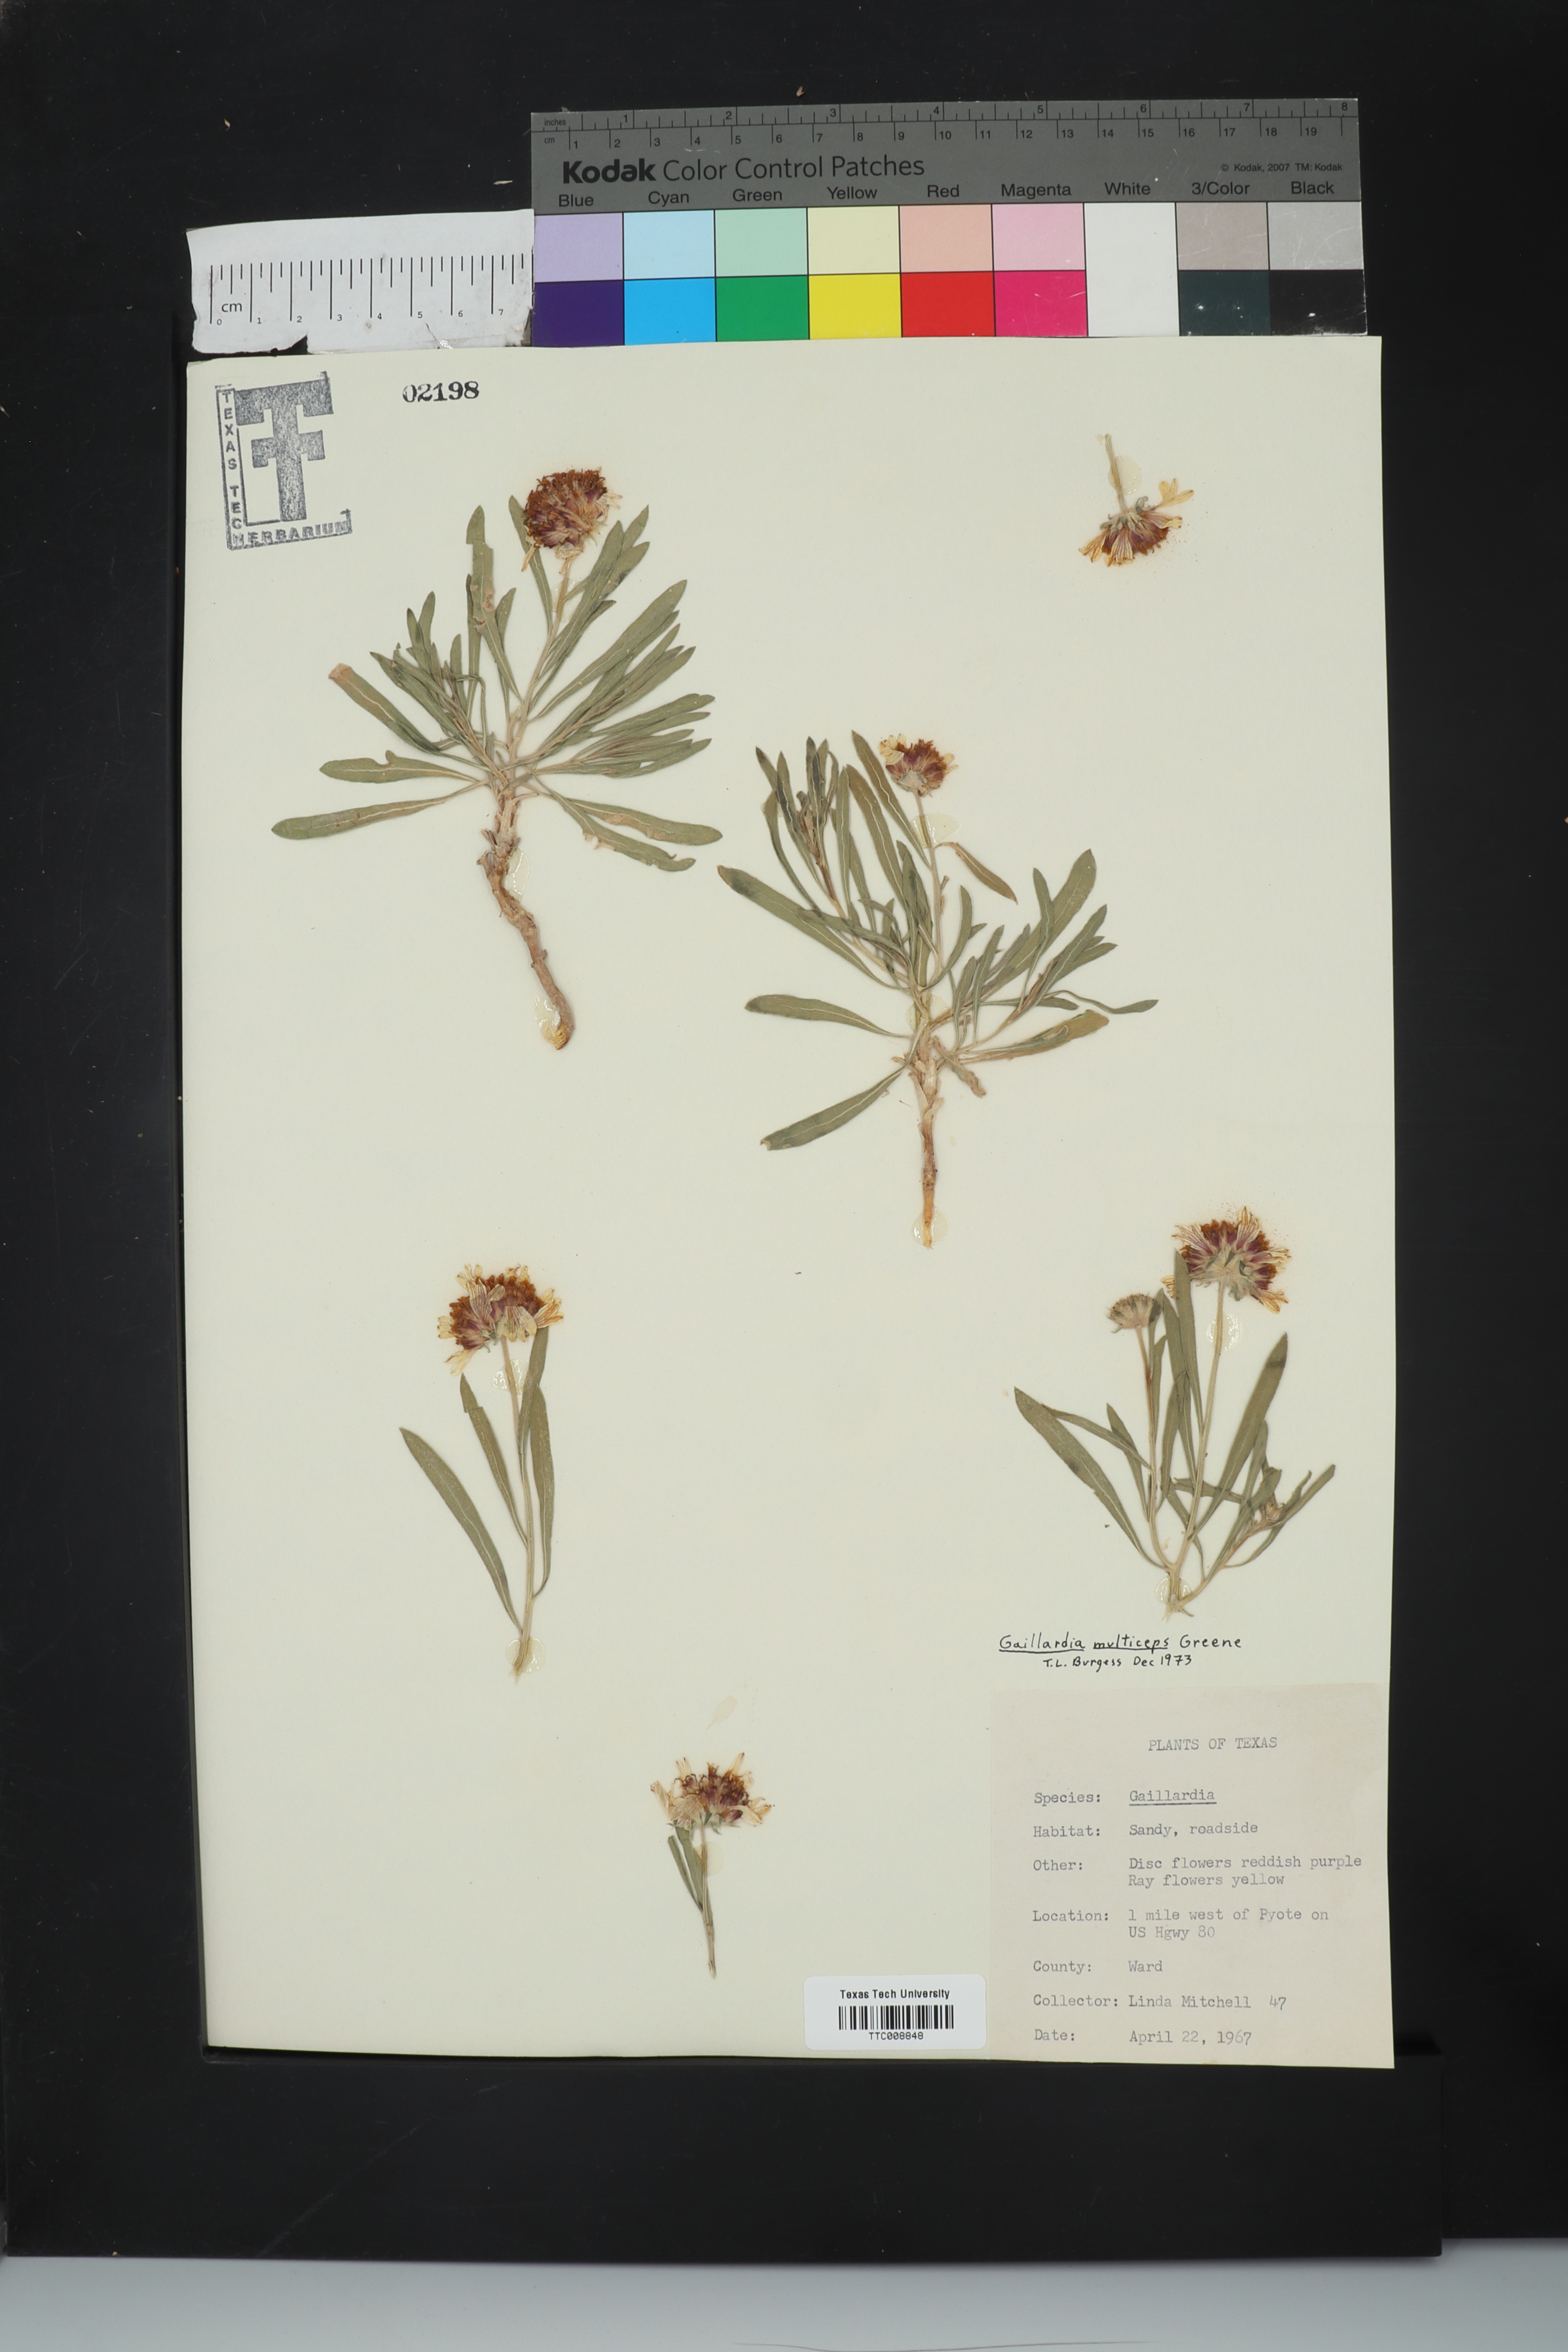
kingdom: Plantae
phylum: Tracheophyta
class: Magnoliopsida
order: Asterales
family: Asteraceae
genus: Gaillardia
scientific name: Gaillardia multiceps
